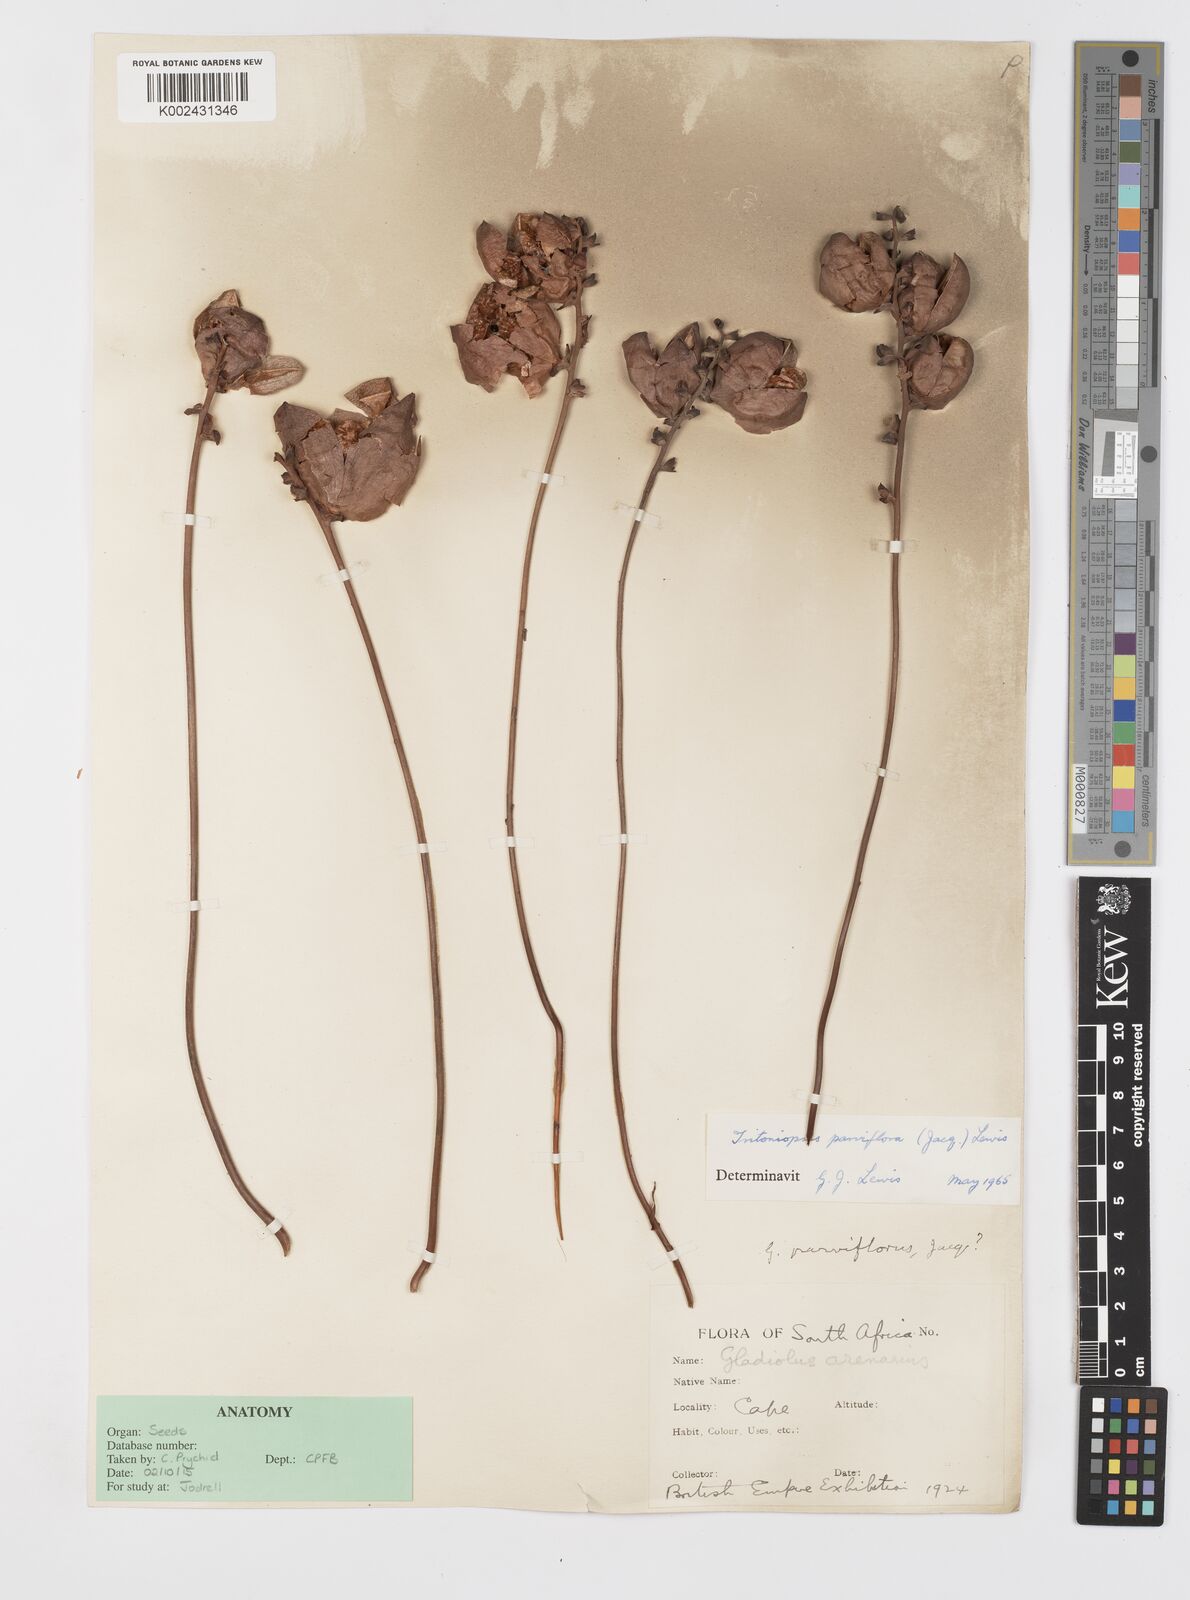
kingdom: Plantae
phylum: Tracheophyta
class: Liliopsida
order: Asparagales
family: Iridaceae
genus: Tritoniopsis
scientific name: Tritoniopsis parviflora
